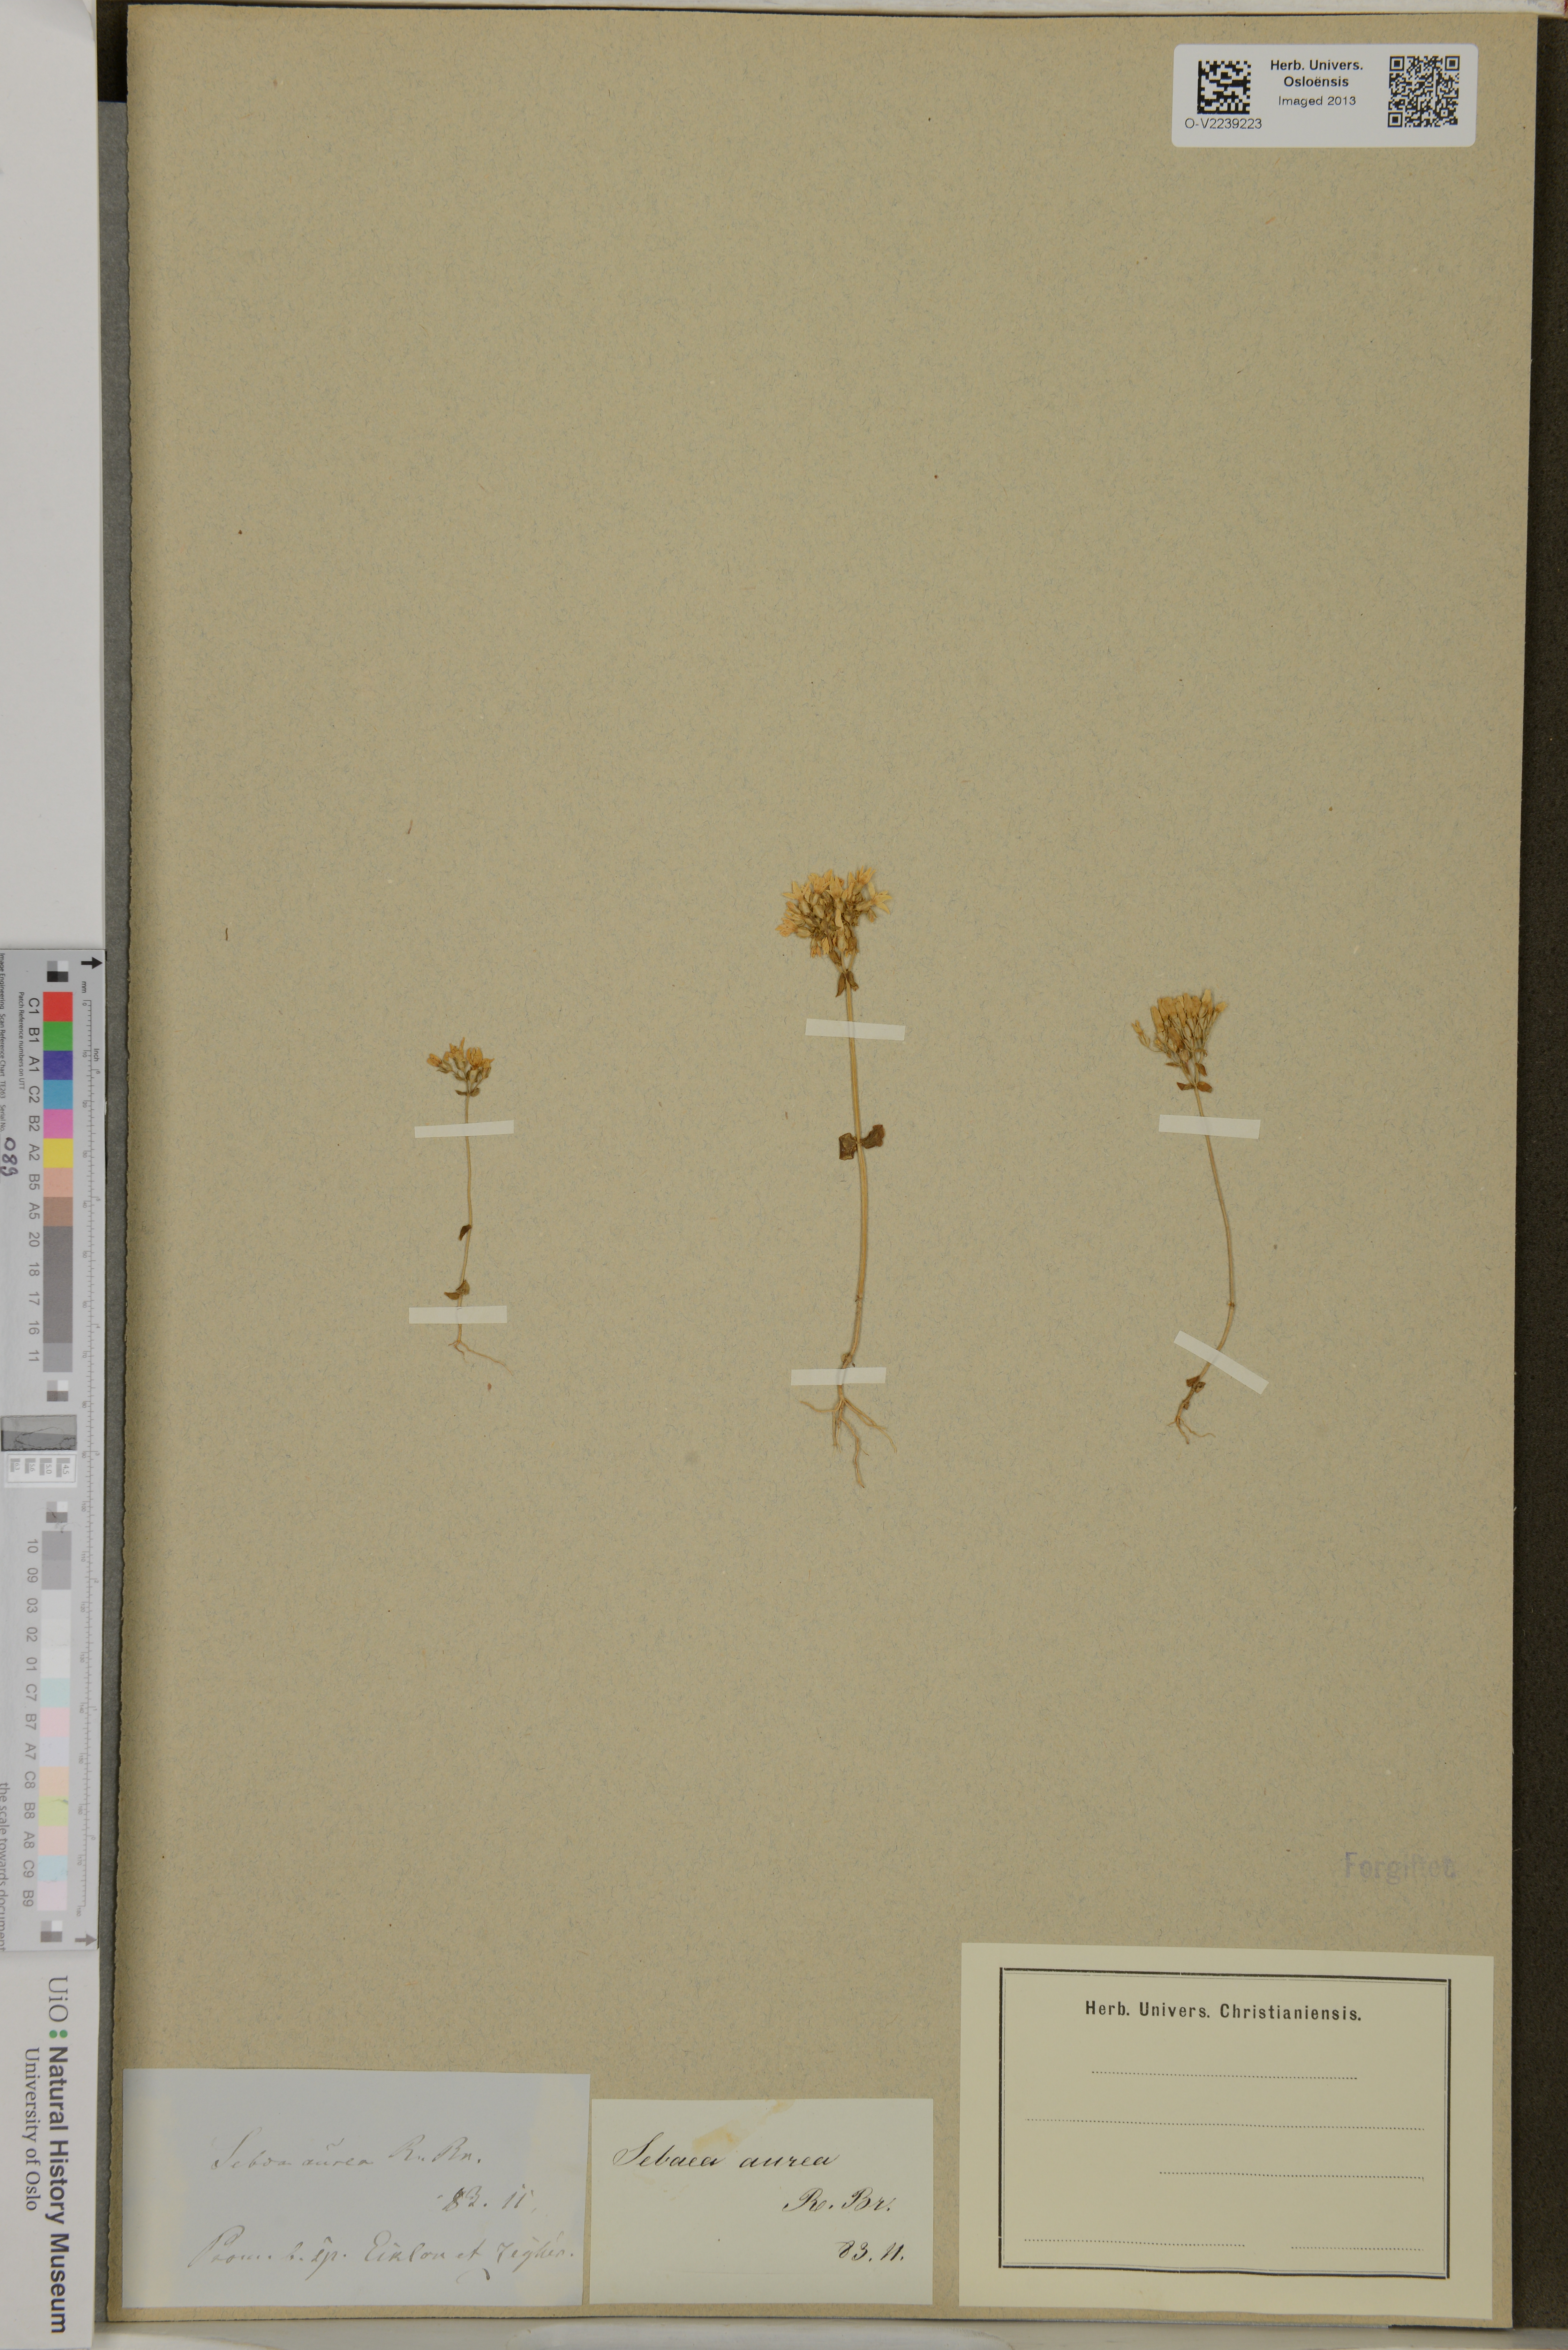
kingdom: Plantae
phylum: Tracheophyta
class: Magnoliopsida
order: Gentianales
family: Gentianaceae
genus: Sebaea
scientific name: Sebaea aurea
